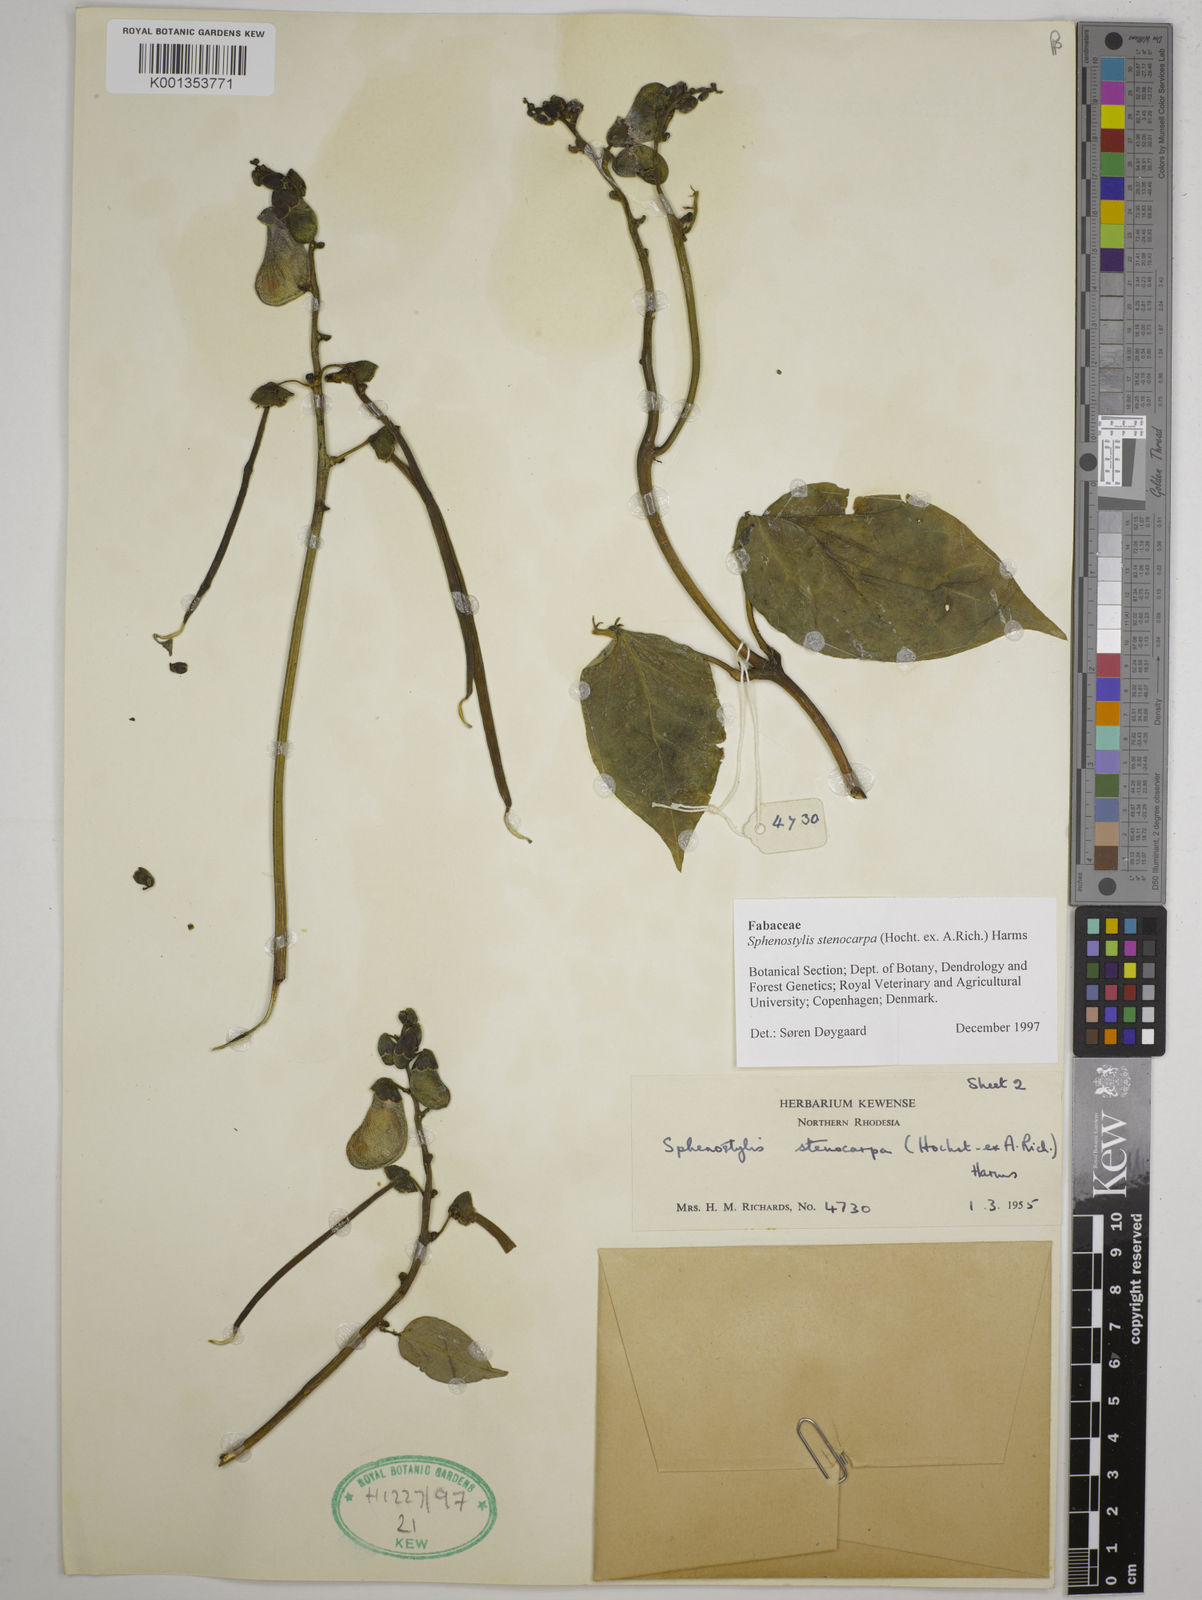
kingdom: Plantae
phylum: Tracheophyta
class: Magnoliopsida
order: Fabales
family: Fabaceae
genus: Sphenostylis
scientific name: Sphenostylis stenocarpa
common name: Yam-pea
